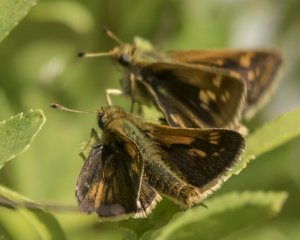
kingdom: Animalia
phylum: Arthropoda
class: Insecta
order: Lepidoptera
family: Hesperiidae
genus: Polites
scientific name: Polites coras
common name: Peck's Skipper
